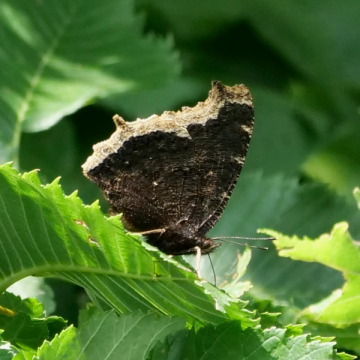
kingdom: Animalia
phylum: Arthropoda
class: Insecta
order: Lepidoptera
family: Nymphalidae
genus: Nymphalis
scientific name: Nymphalis antiopa
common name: Mourning Cloak
